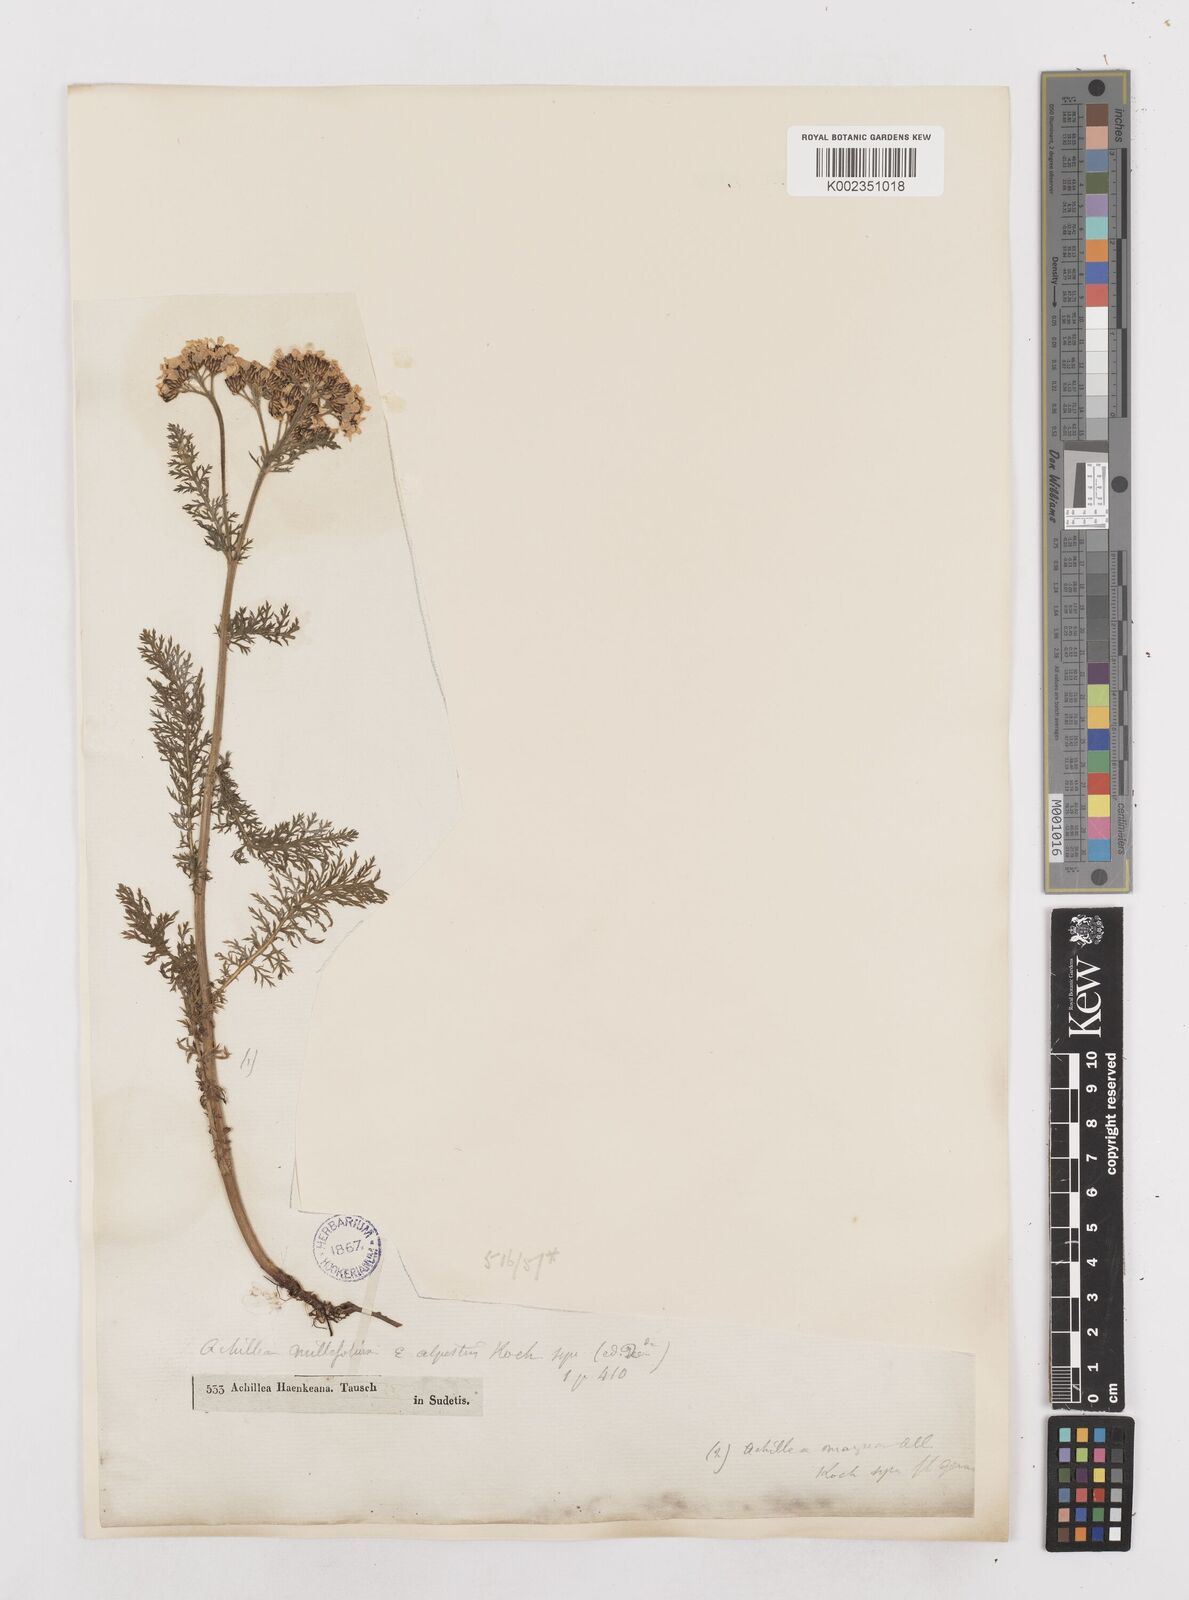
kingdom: Plantae
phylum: Tracheophyta
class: Magnoliopsida
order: Asterales
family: Asteraceae
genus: Achillea
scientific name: Achillea millefolium
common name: Yarrow
